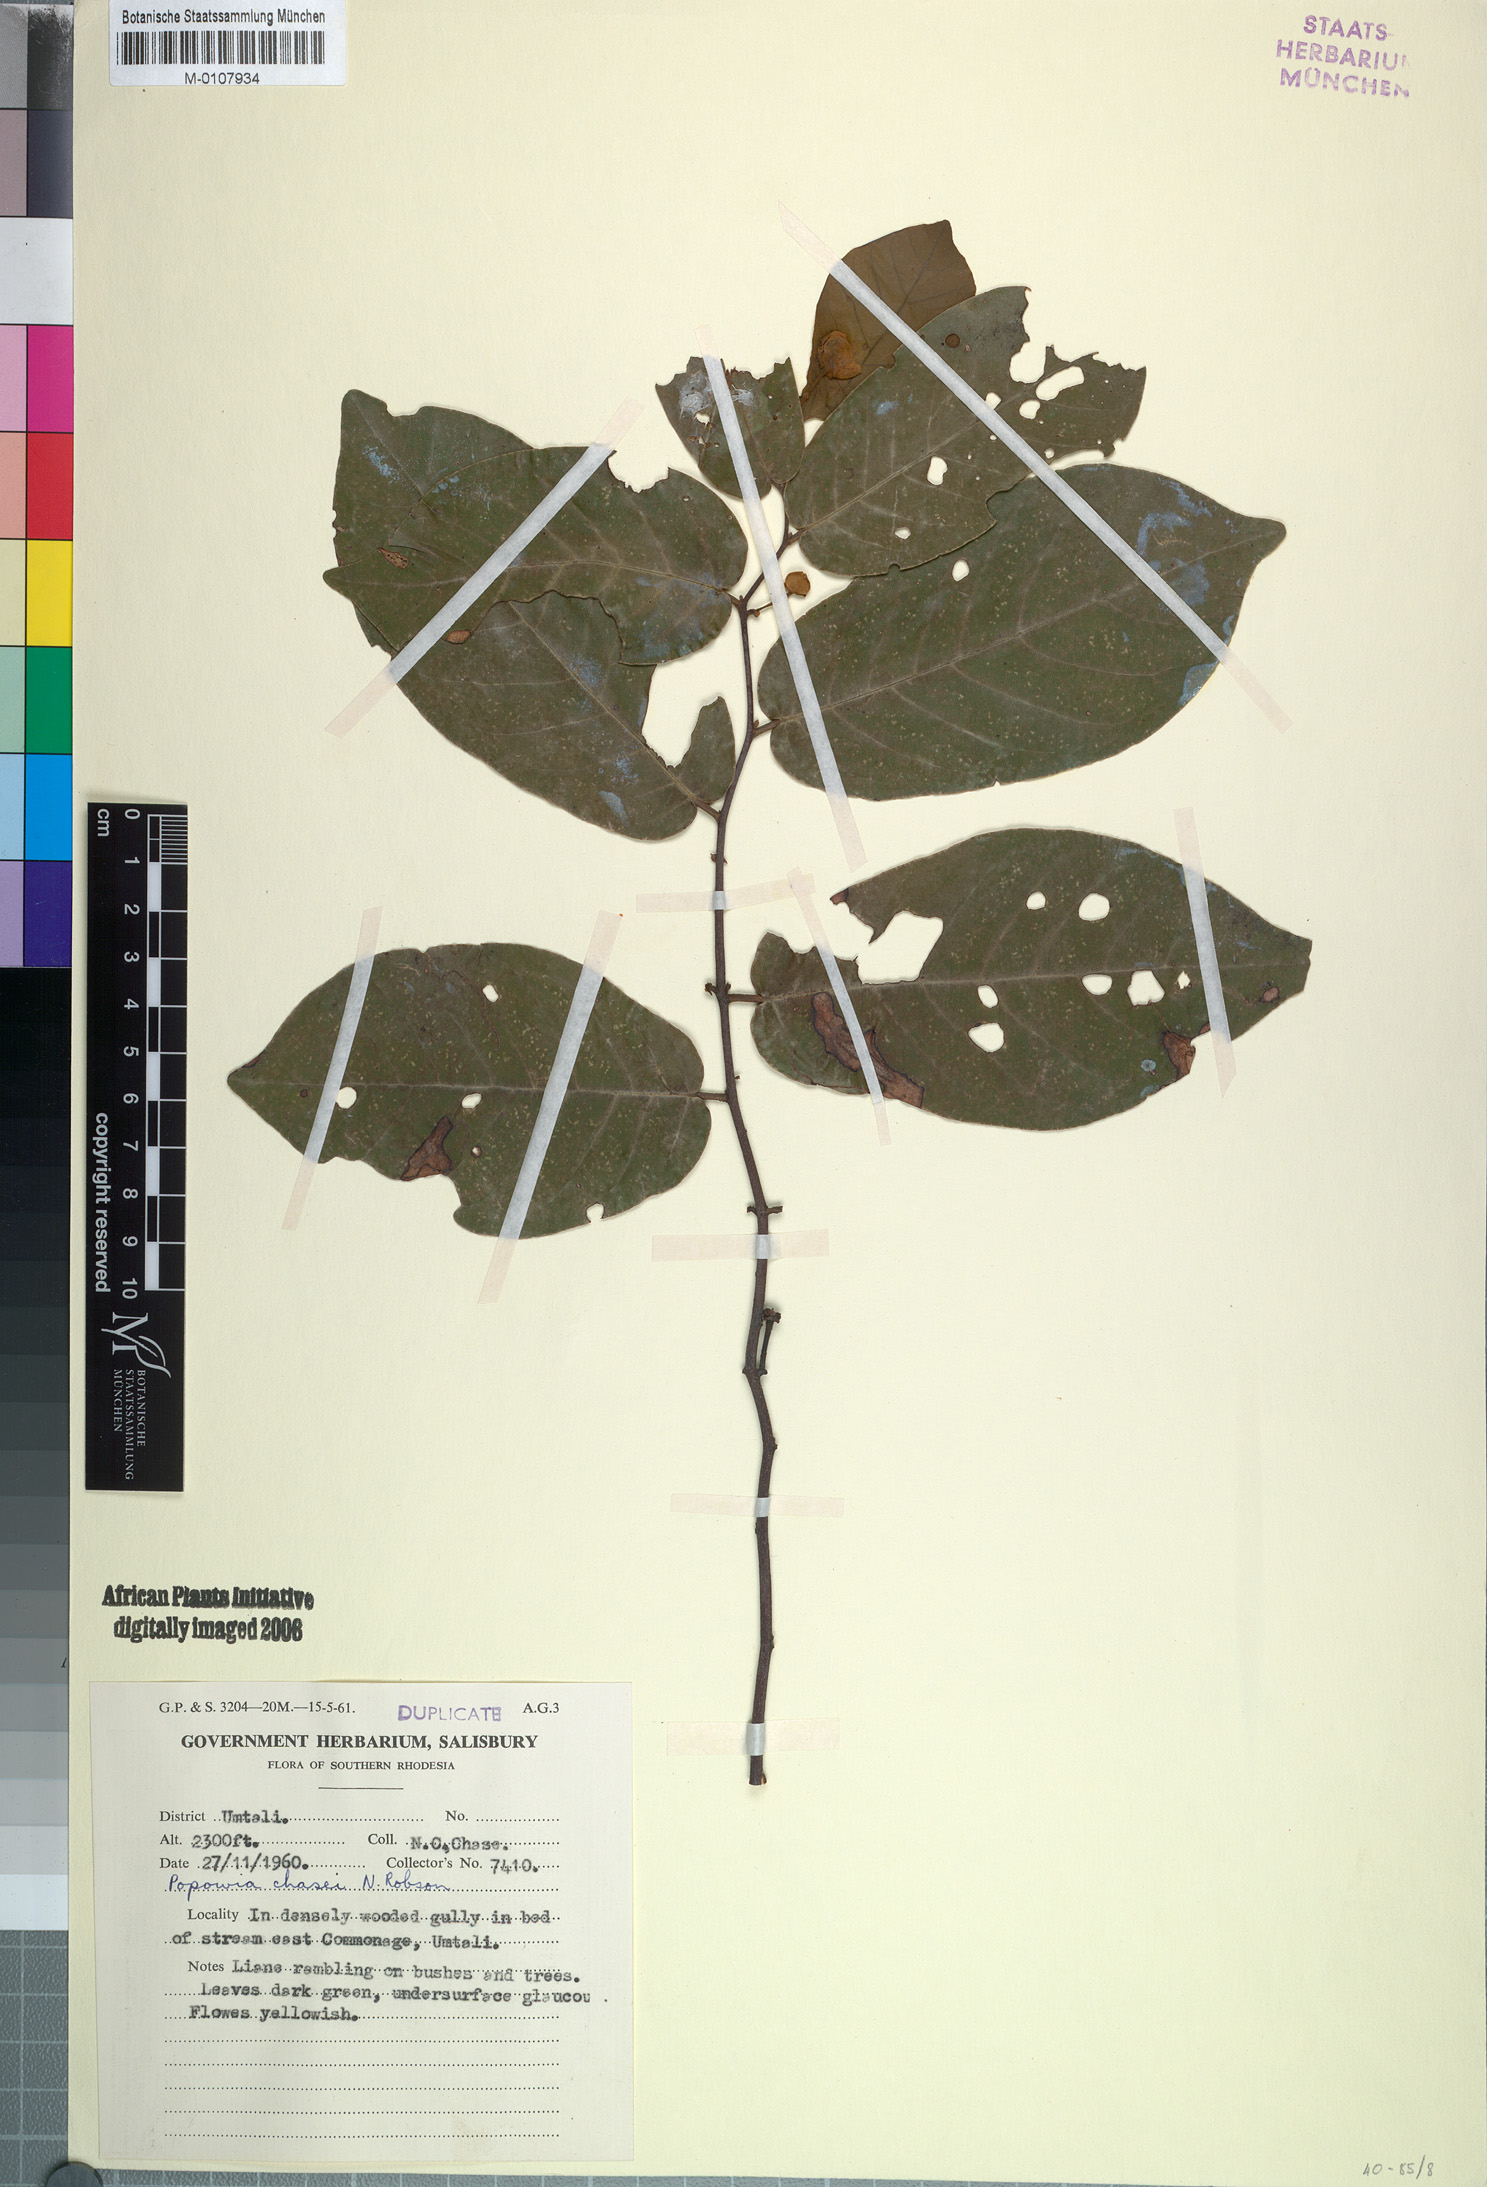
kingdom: Plantae
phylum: Tracheophyta
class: Magnoliopsida
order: Magnoliales
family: Annonaceae
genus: Monanthotaxis
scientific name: Monanthotaxis chasei
